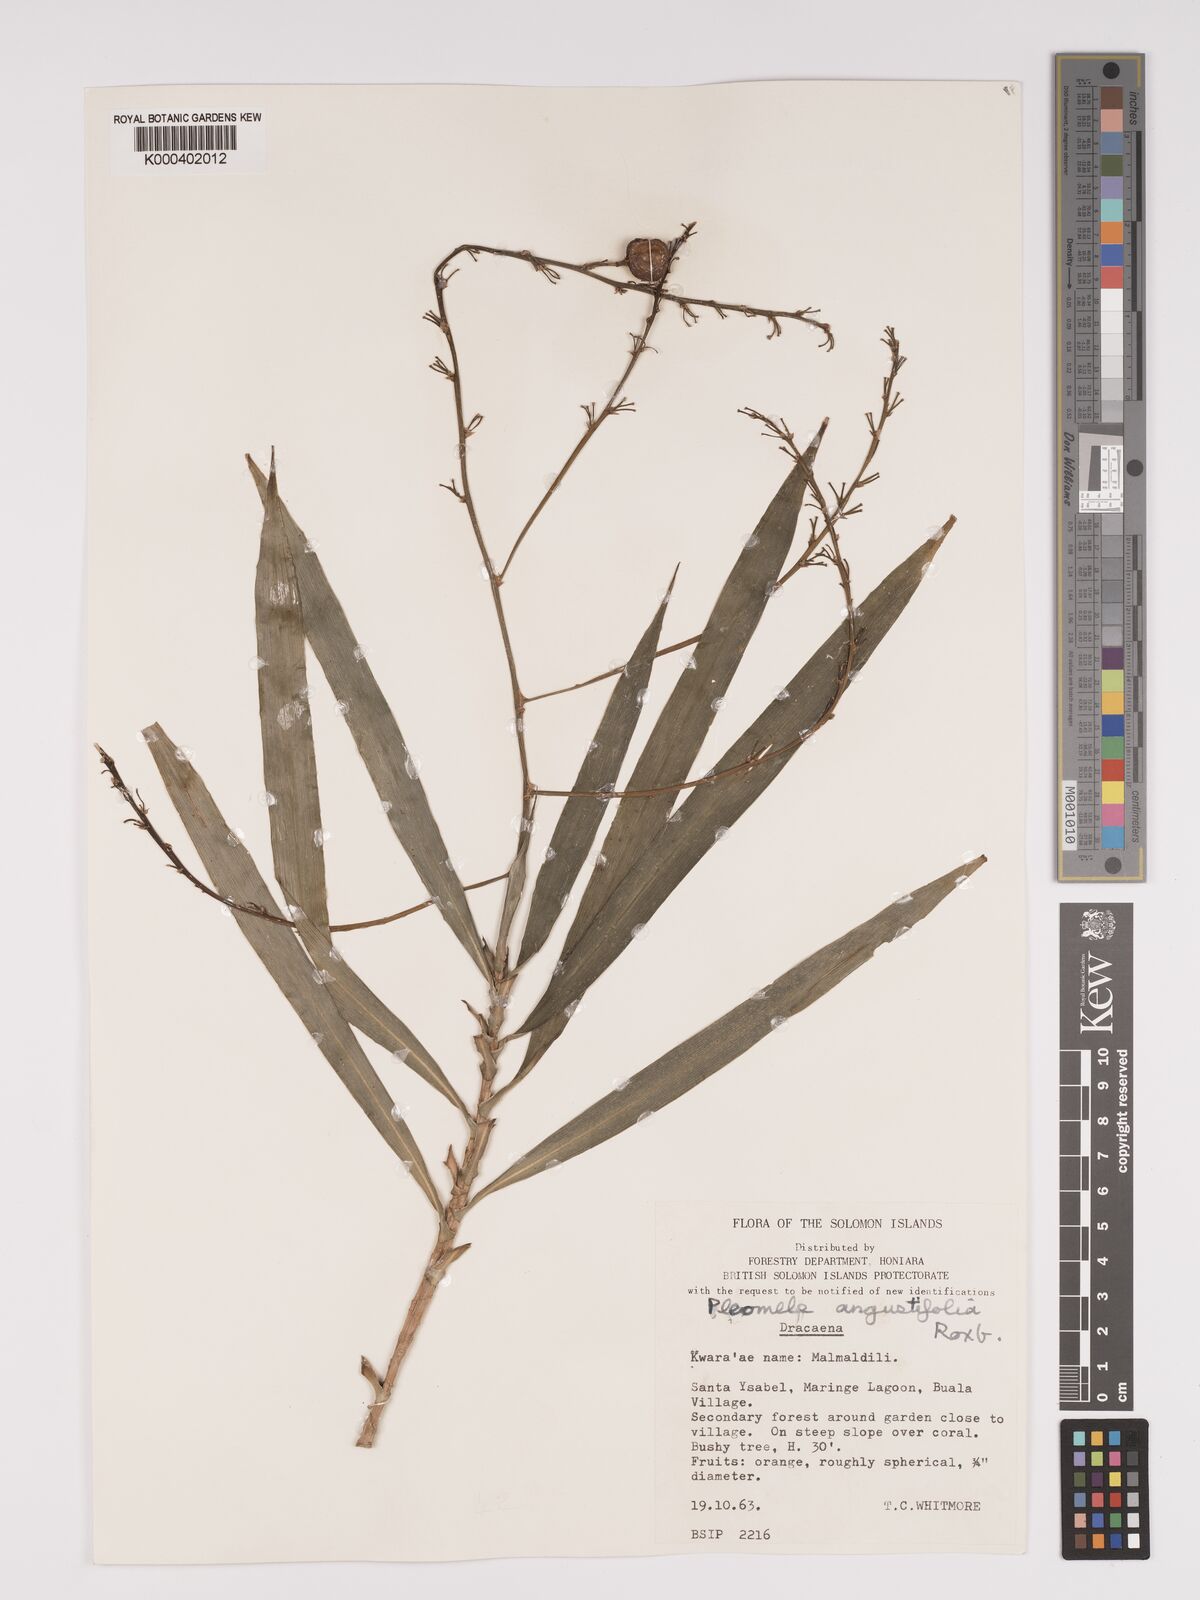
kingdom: Plantae
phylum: Tracheophyta
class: Liliopsida
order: Asparagales
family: Asparagaceae
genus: Dracaena
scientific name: Dracaena angustifolia
